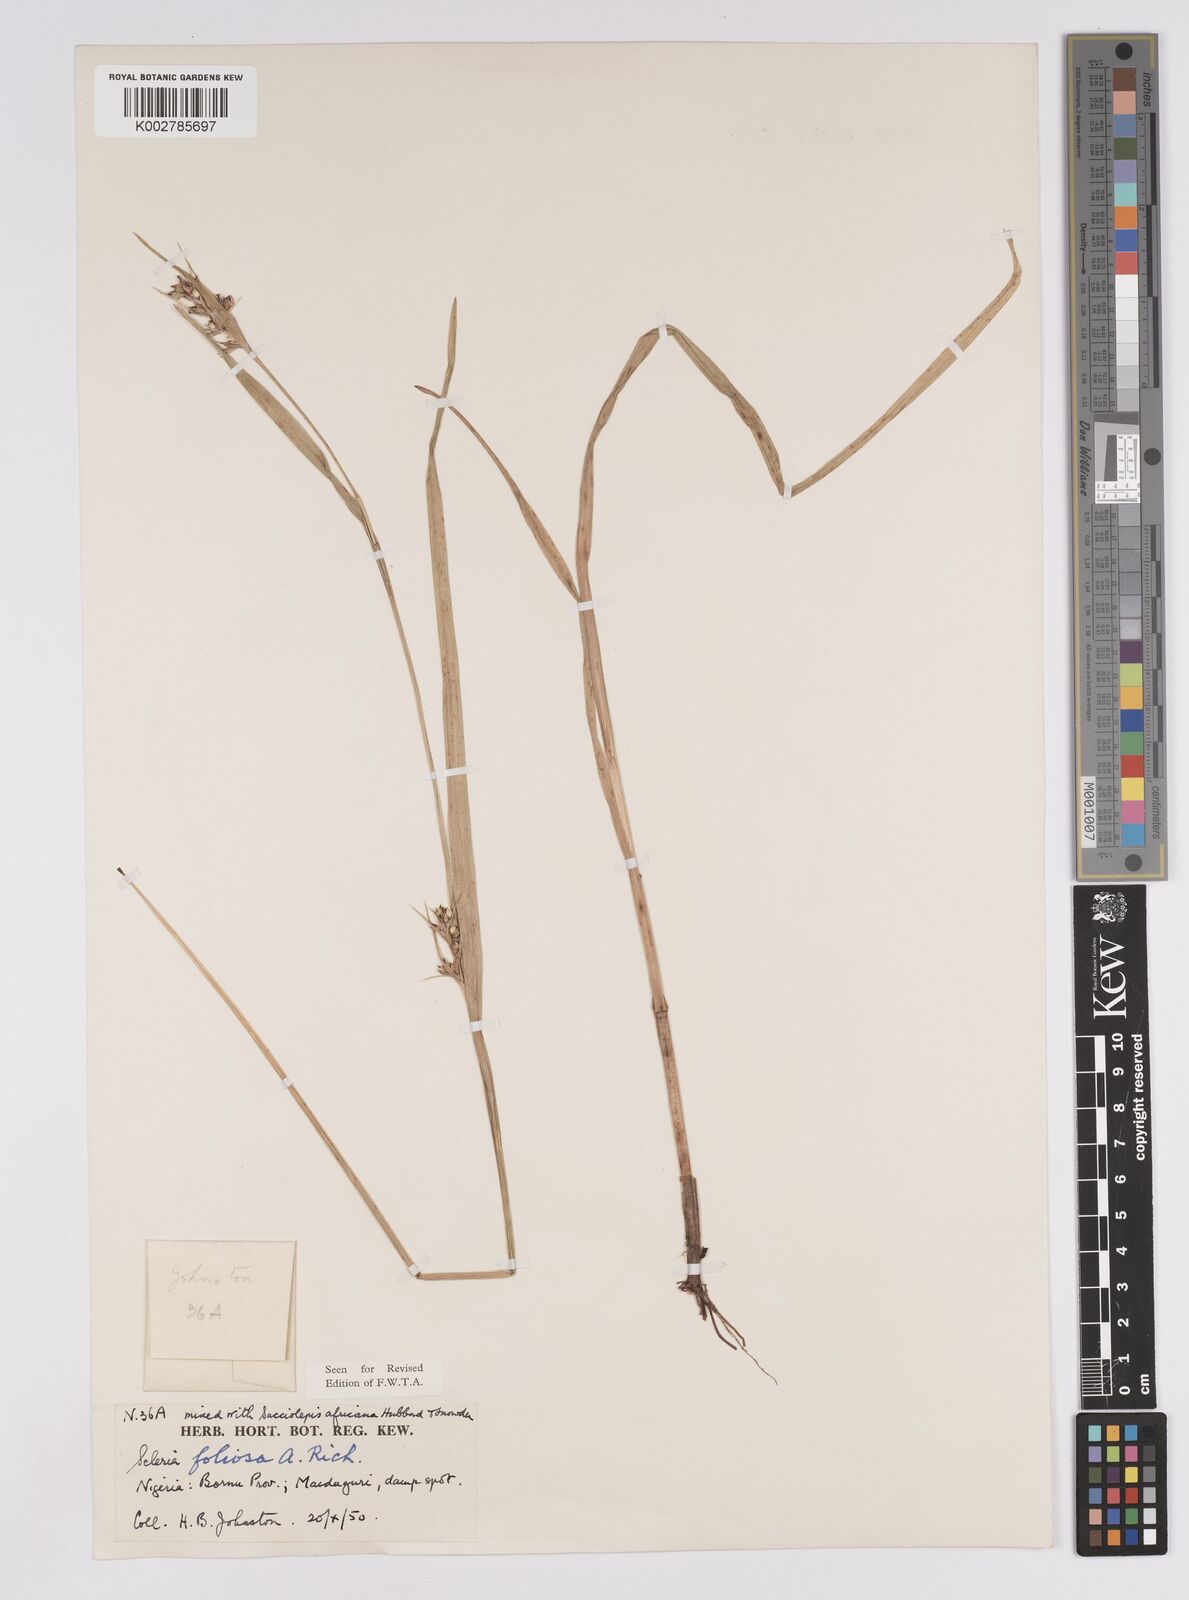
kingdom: Plantae
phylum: Tracheophyta
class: Liliopsida
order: Poales
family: Cyperaceae
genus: Scleria
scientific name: Scleria foliosa
